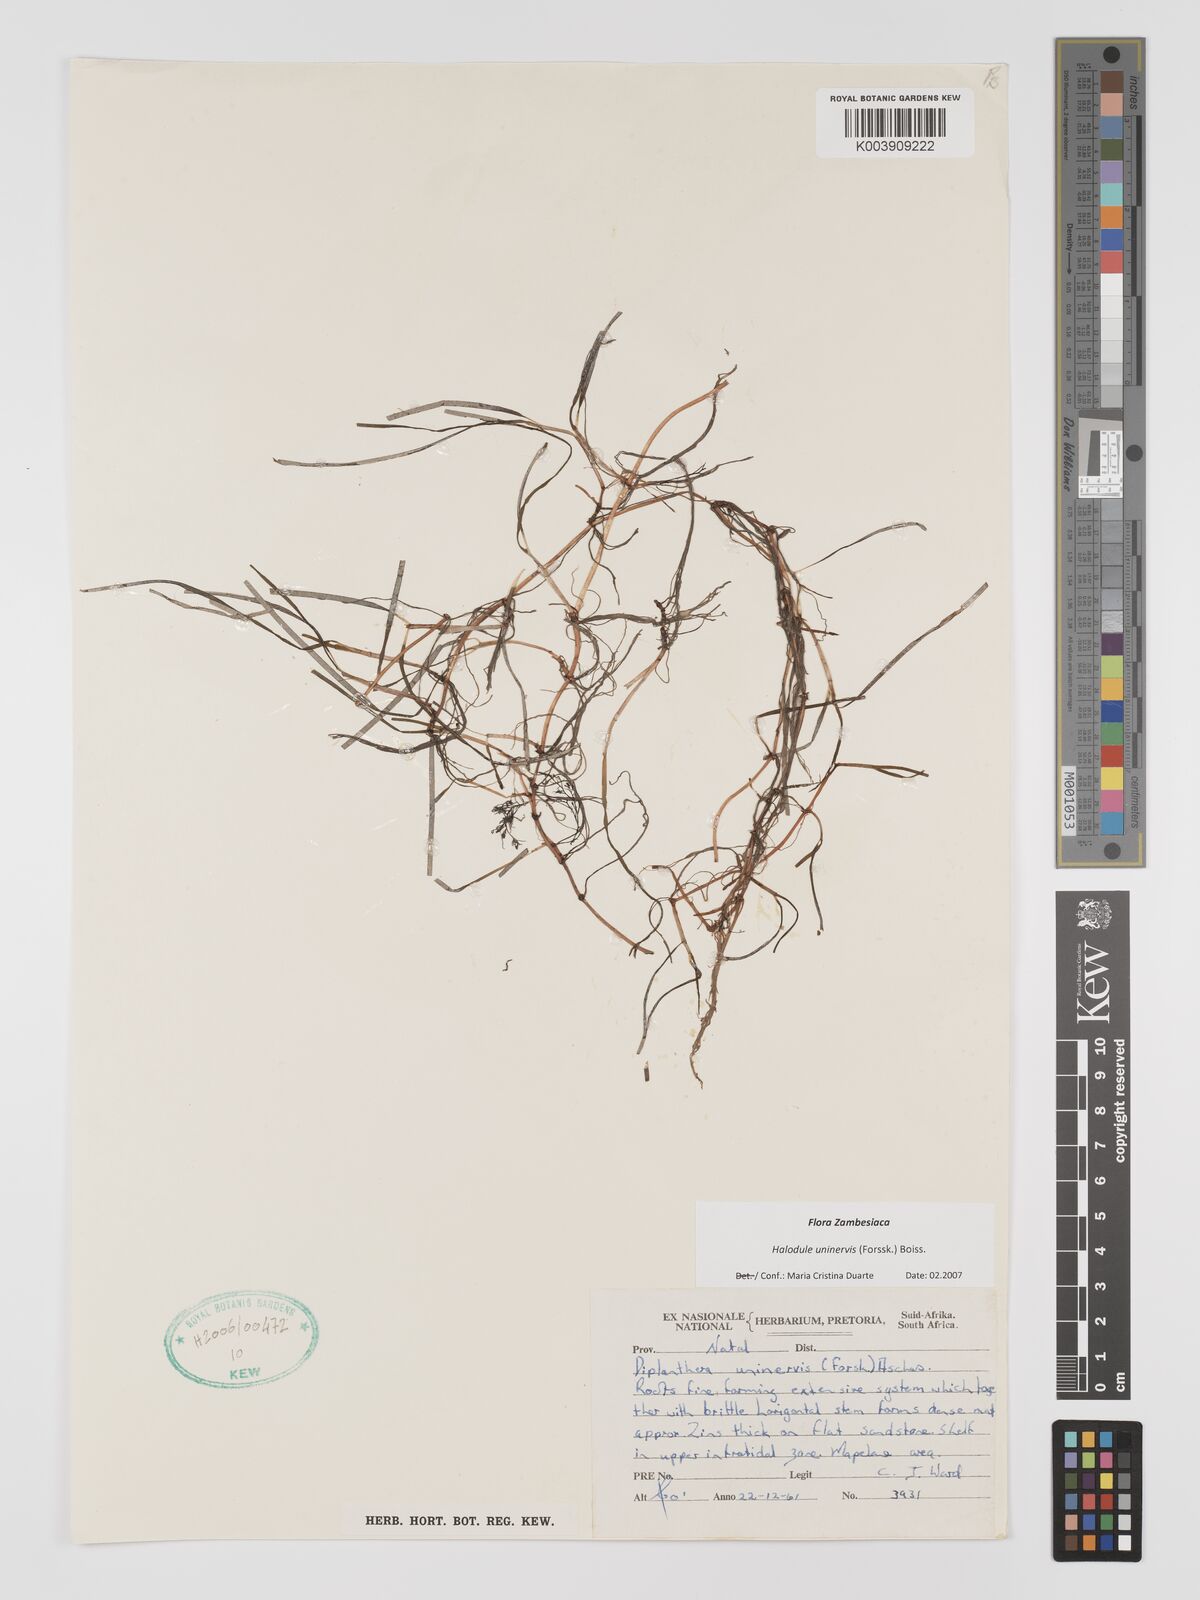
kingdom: Plantae
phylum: Tracheophyta
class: Liliopsida
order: Alismatales
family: Cymodoceaceae
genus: Halodule
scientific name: Halodule uninervis
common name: Narrowleaf seagrass
